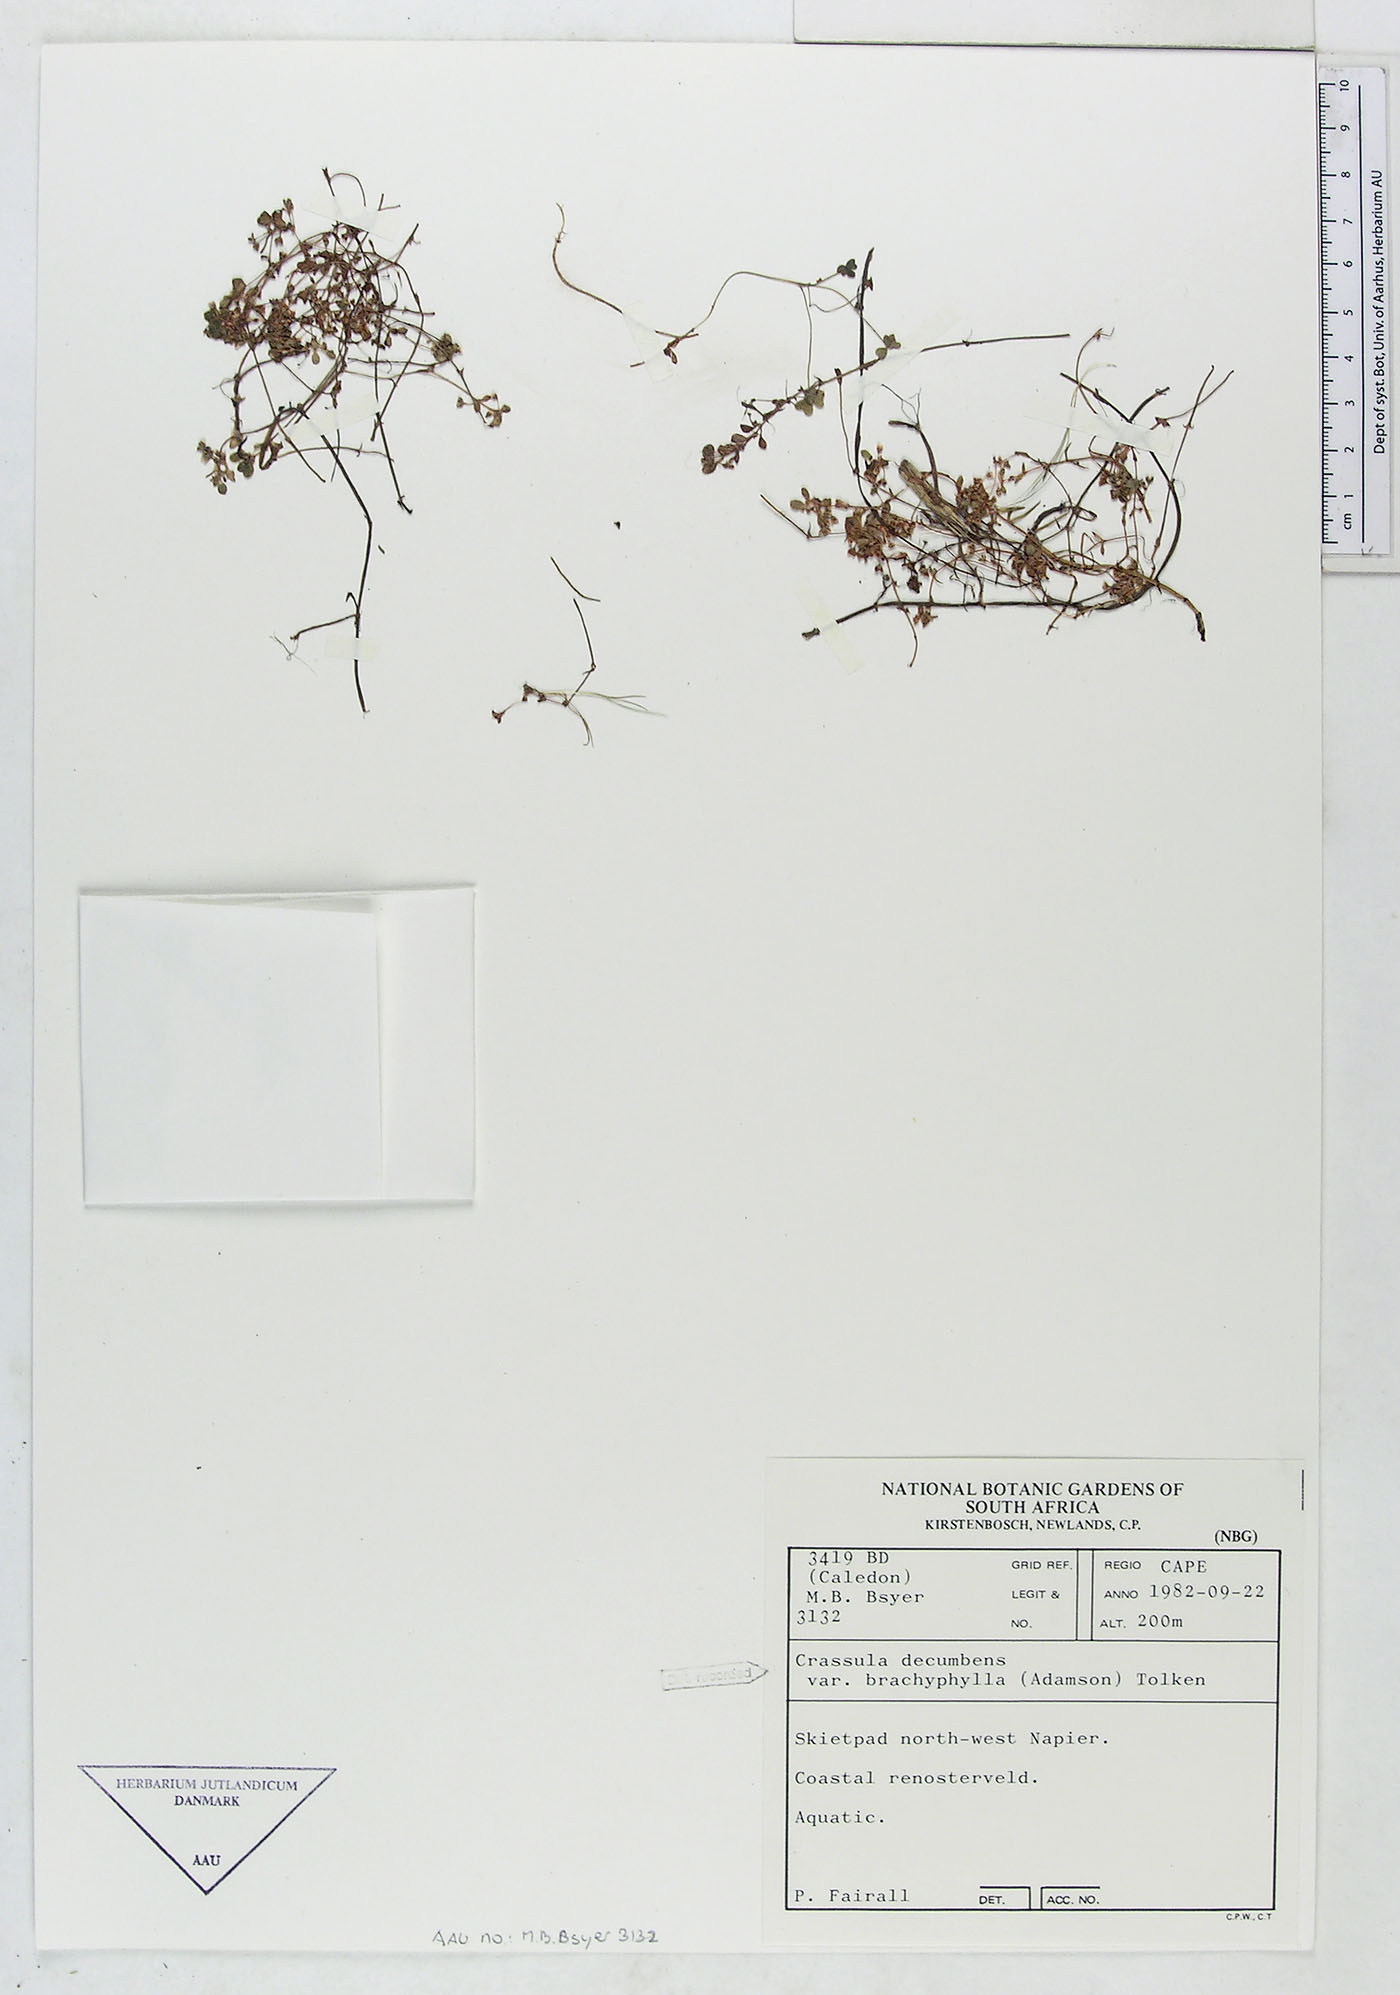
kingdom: Plantae
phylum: Tracheophyta
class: Magnoliopsida
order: Saxifragales
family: Crassulaceae
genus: Crassula
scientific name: Crassula decumbens
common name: Scilly pigmyweed
